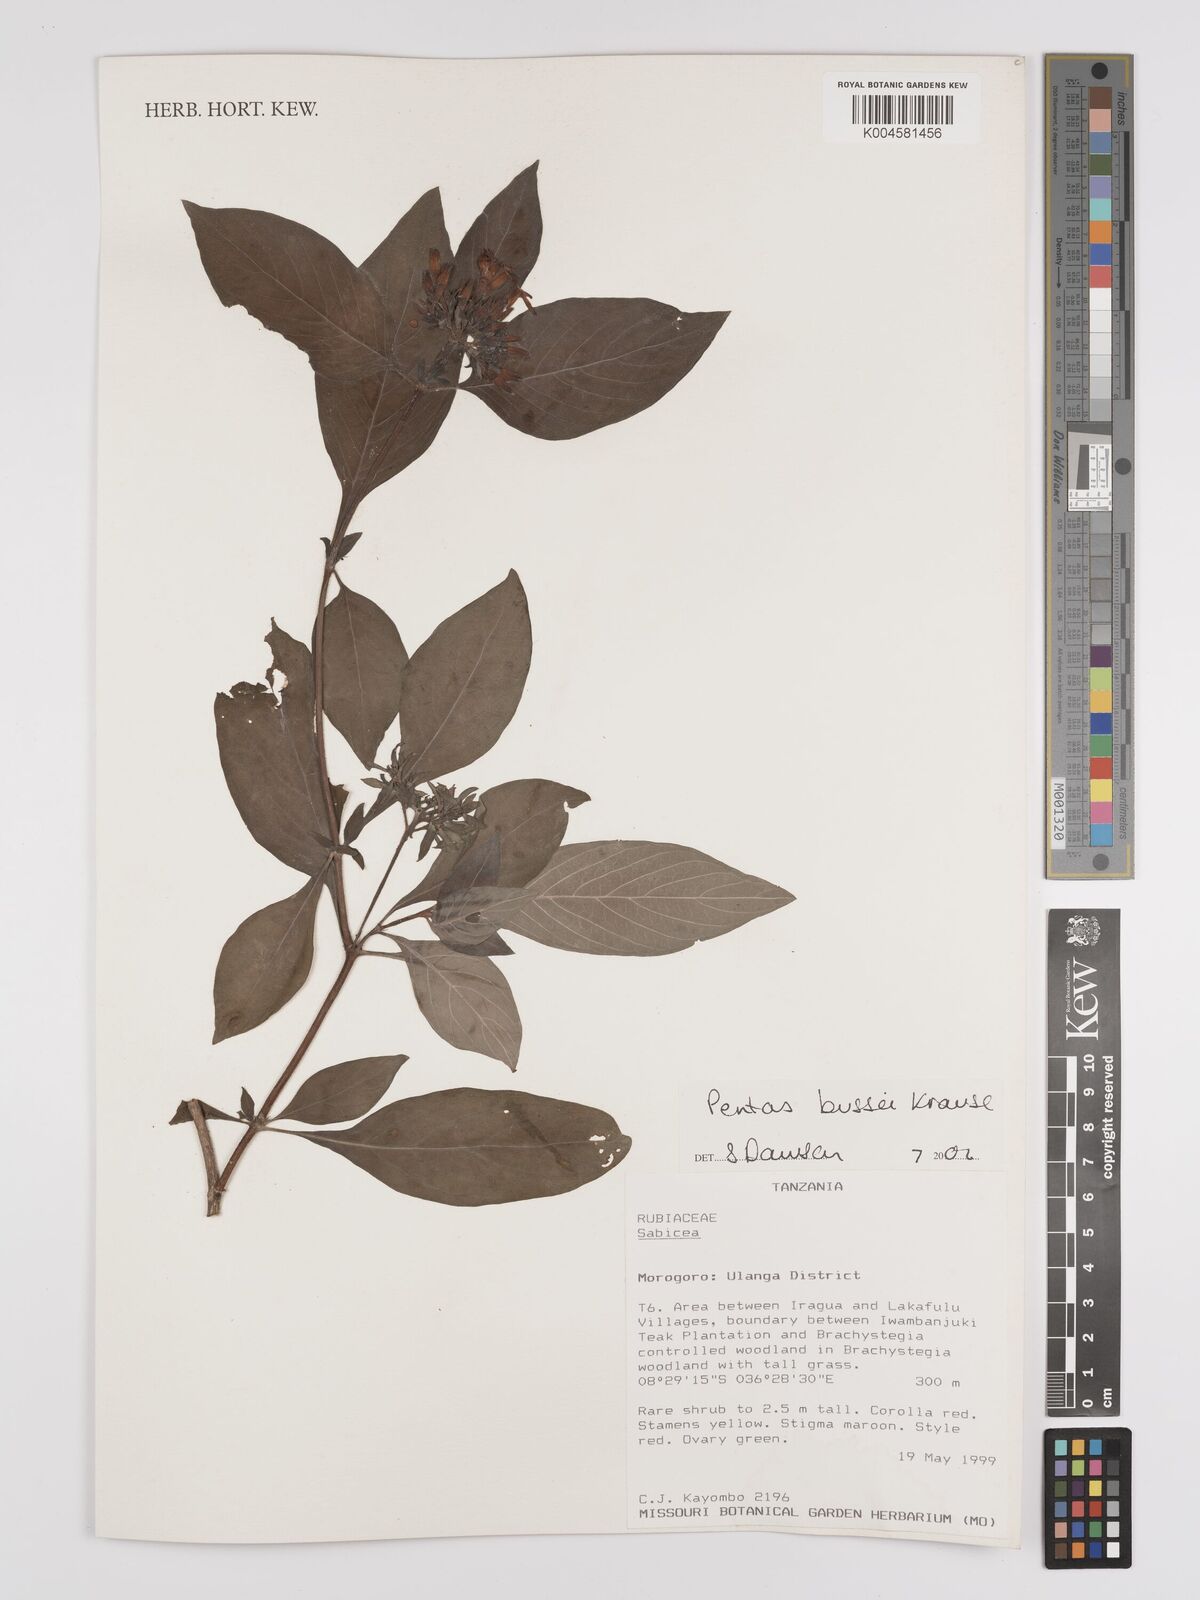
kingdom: Plantae
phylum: Tracheophyta
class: Magnoliopsida
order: Gentianales
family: Rubiaceae
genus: Rhodopentas
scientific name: Rhodopentas bussei
